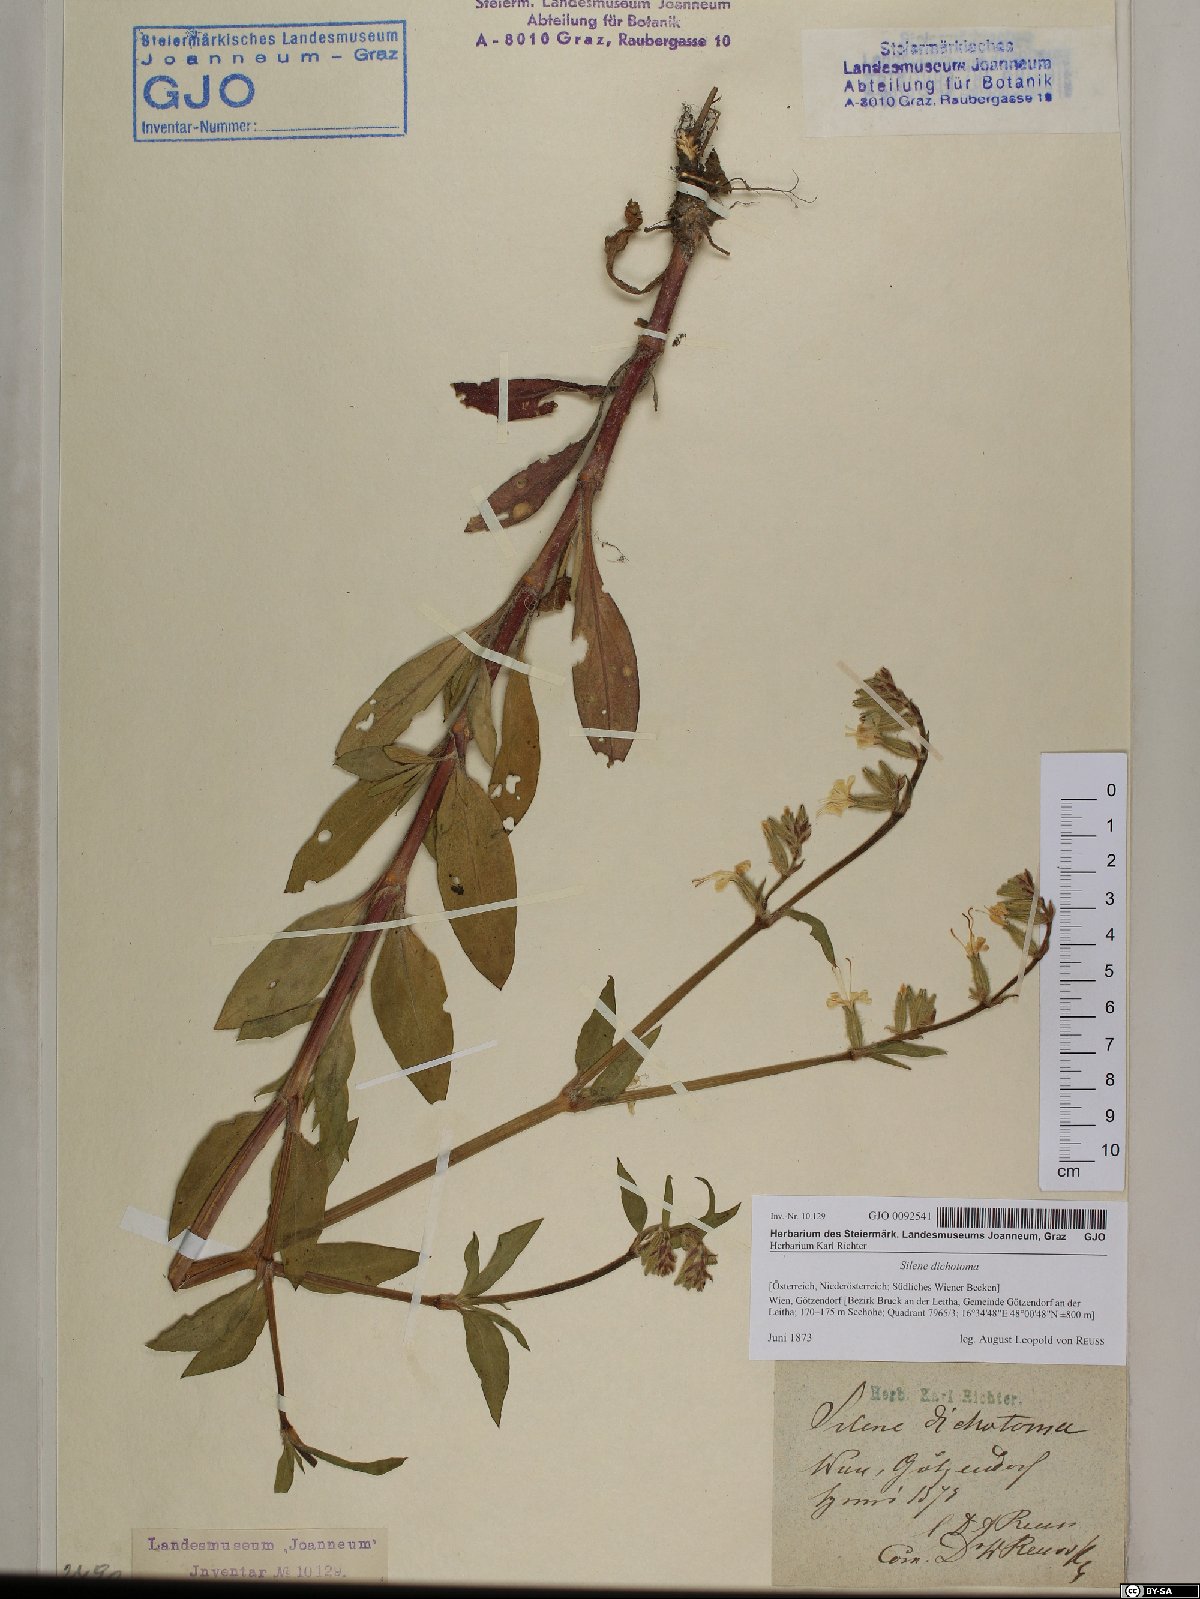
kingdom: Plantae
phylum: Tracheophyta
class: Magnoliopsida
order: Caryophyllales
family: Caryophyllaceae
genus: Silene
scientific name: Silene dichotoma
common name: Forked catchfly
